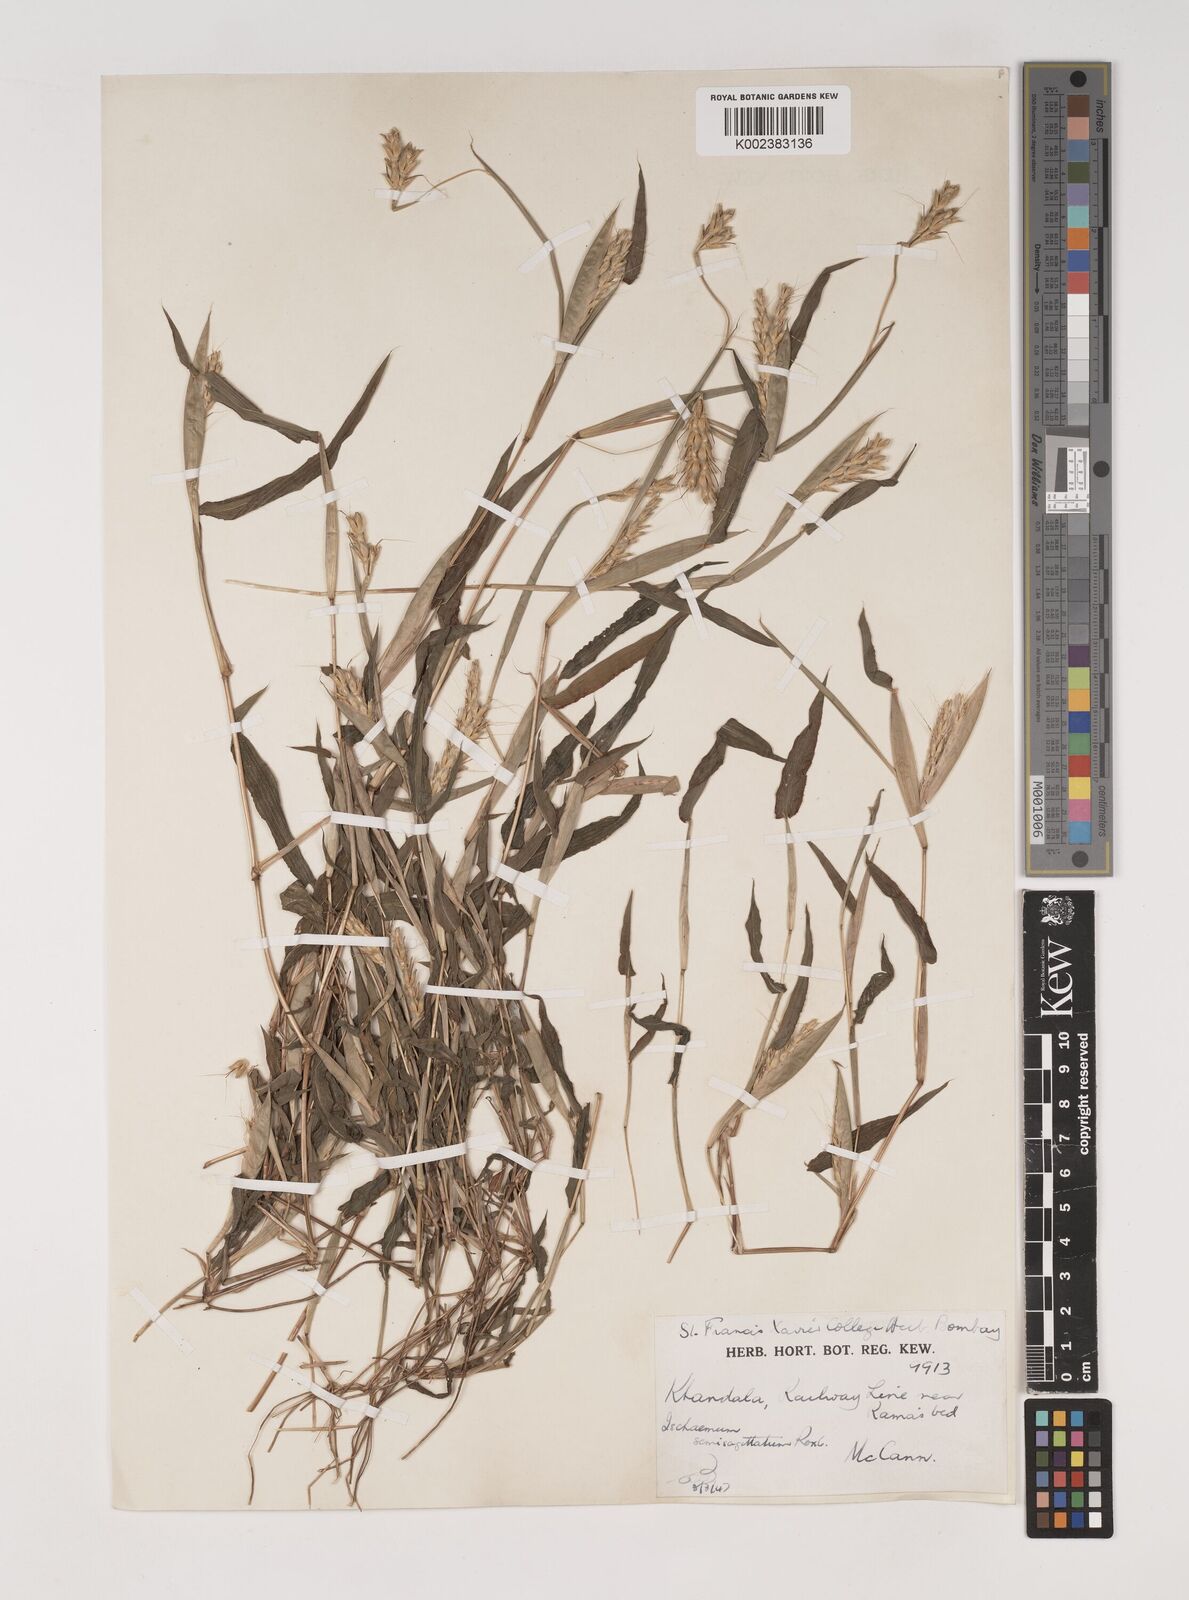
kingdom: Plantae
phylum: Tracheophyta
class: Liliopsida
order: Poales
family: Poaceae
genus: Ischaemum
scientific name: Ischaemum semisagittatum
